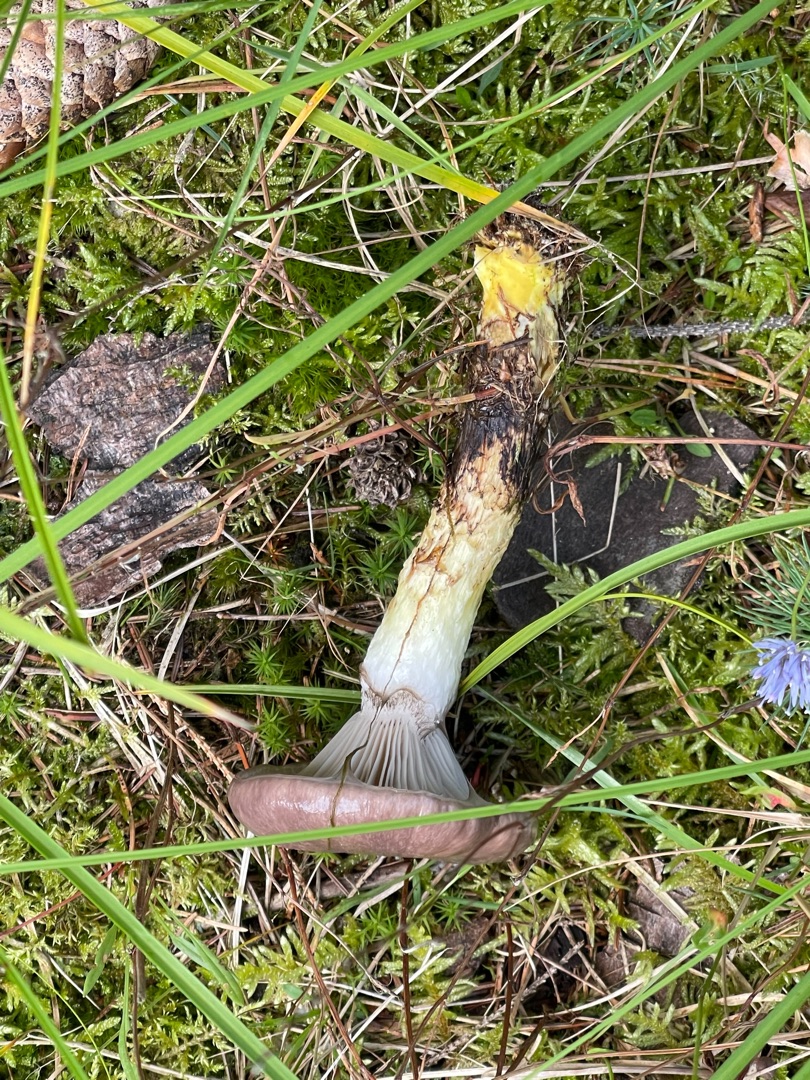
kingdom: Fungi
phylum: Basidiomycota
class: Agaricomycetes
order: Boletales
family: Gomphidiaceae
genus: Gomphidius
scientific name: Gomphidius glutinosus
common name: Grå slimslør
